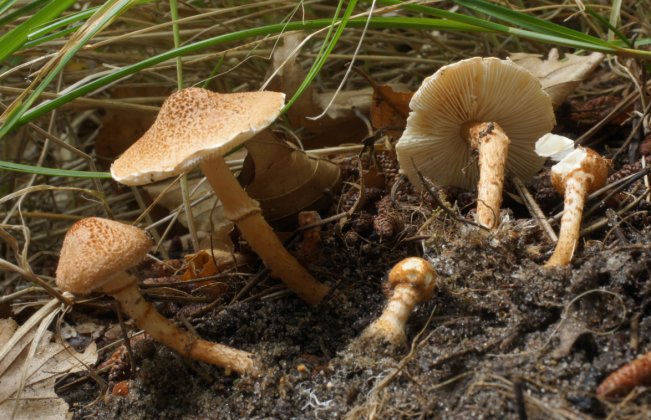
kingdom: Fungi
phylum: Basidiomycota
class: Agaricomycetes
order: Agaricales
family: Agaricaceae
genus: Lepiota
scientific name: Lepiota castanea
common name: kastaniebrun parasolhat
